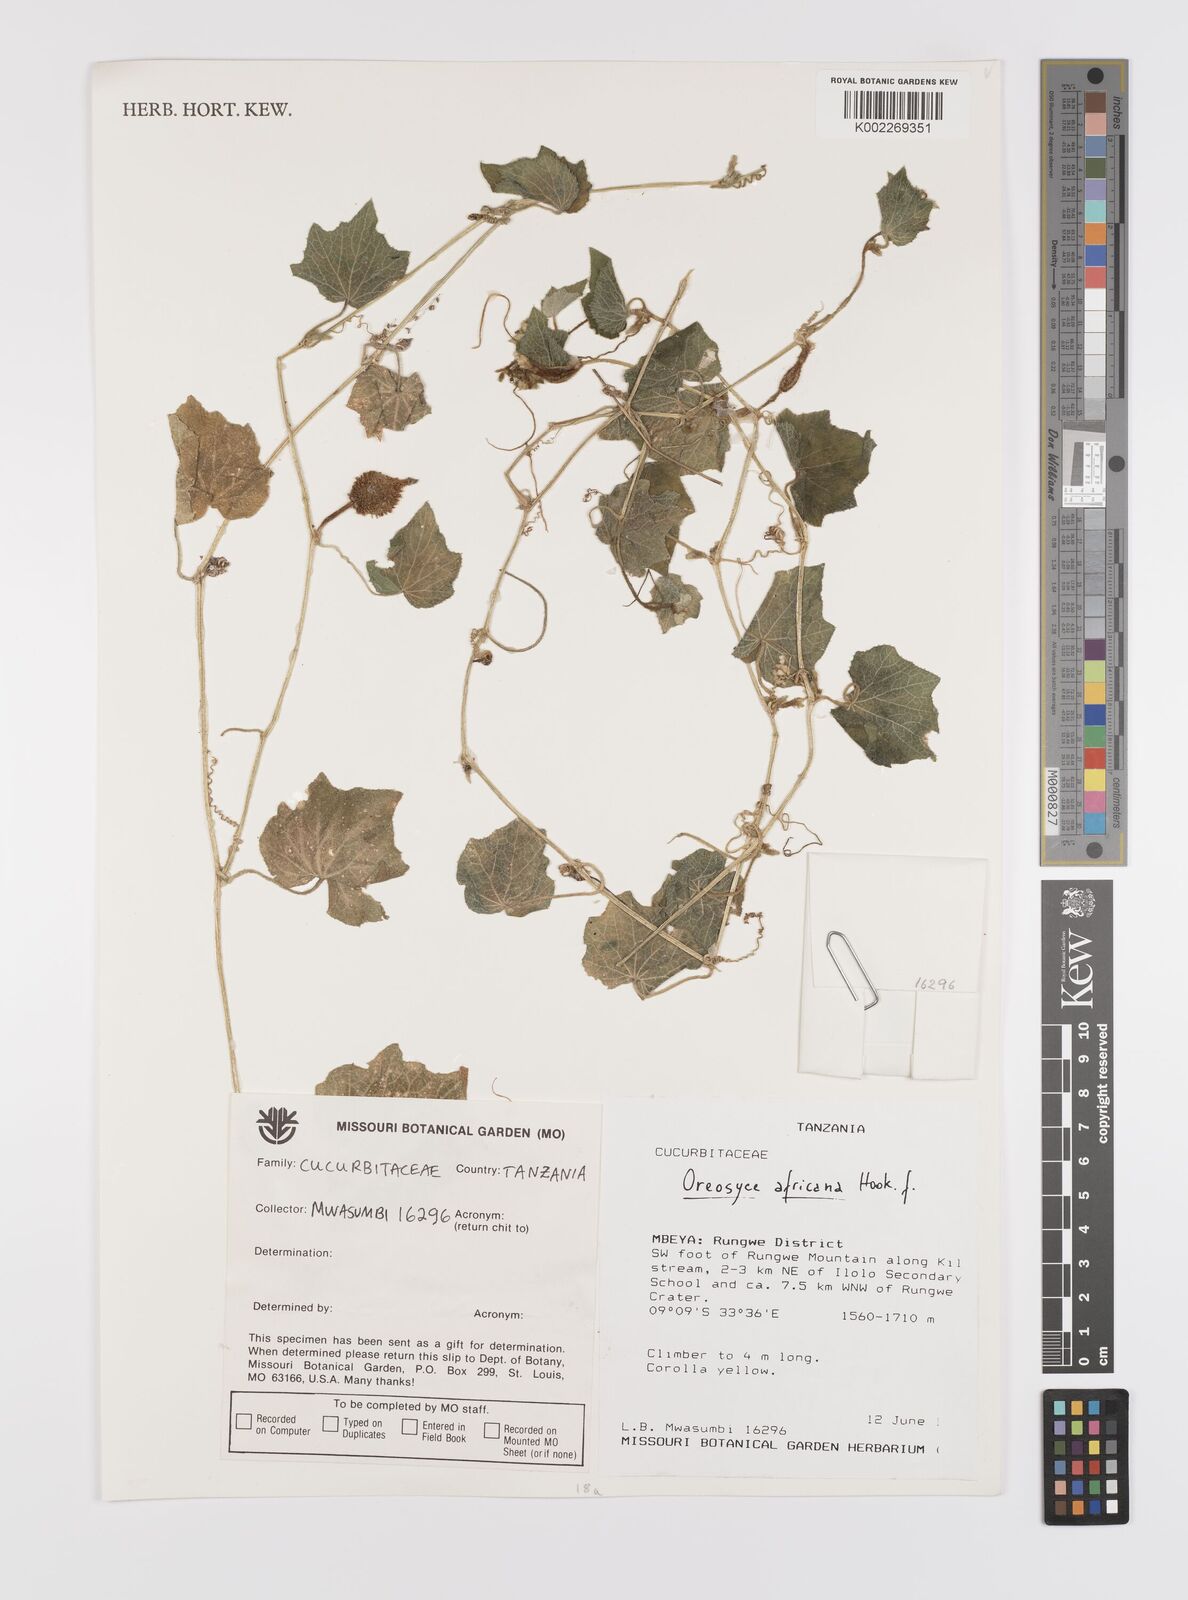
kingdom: Plantae
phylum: Tracheophyta
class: Magnoliopsida
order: Cucurbitales
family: Cucurbitaceae
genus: Cucumis
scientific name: Cucumis oreosyce
